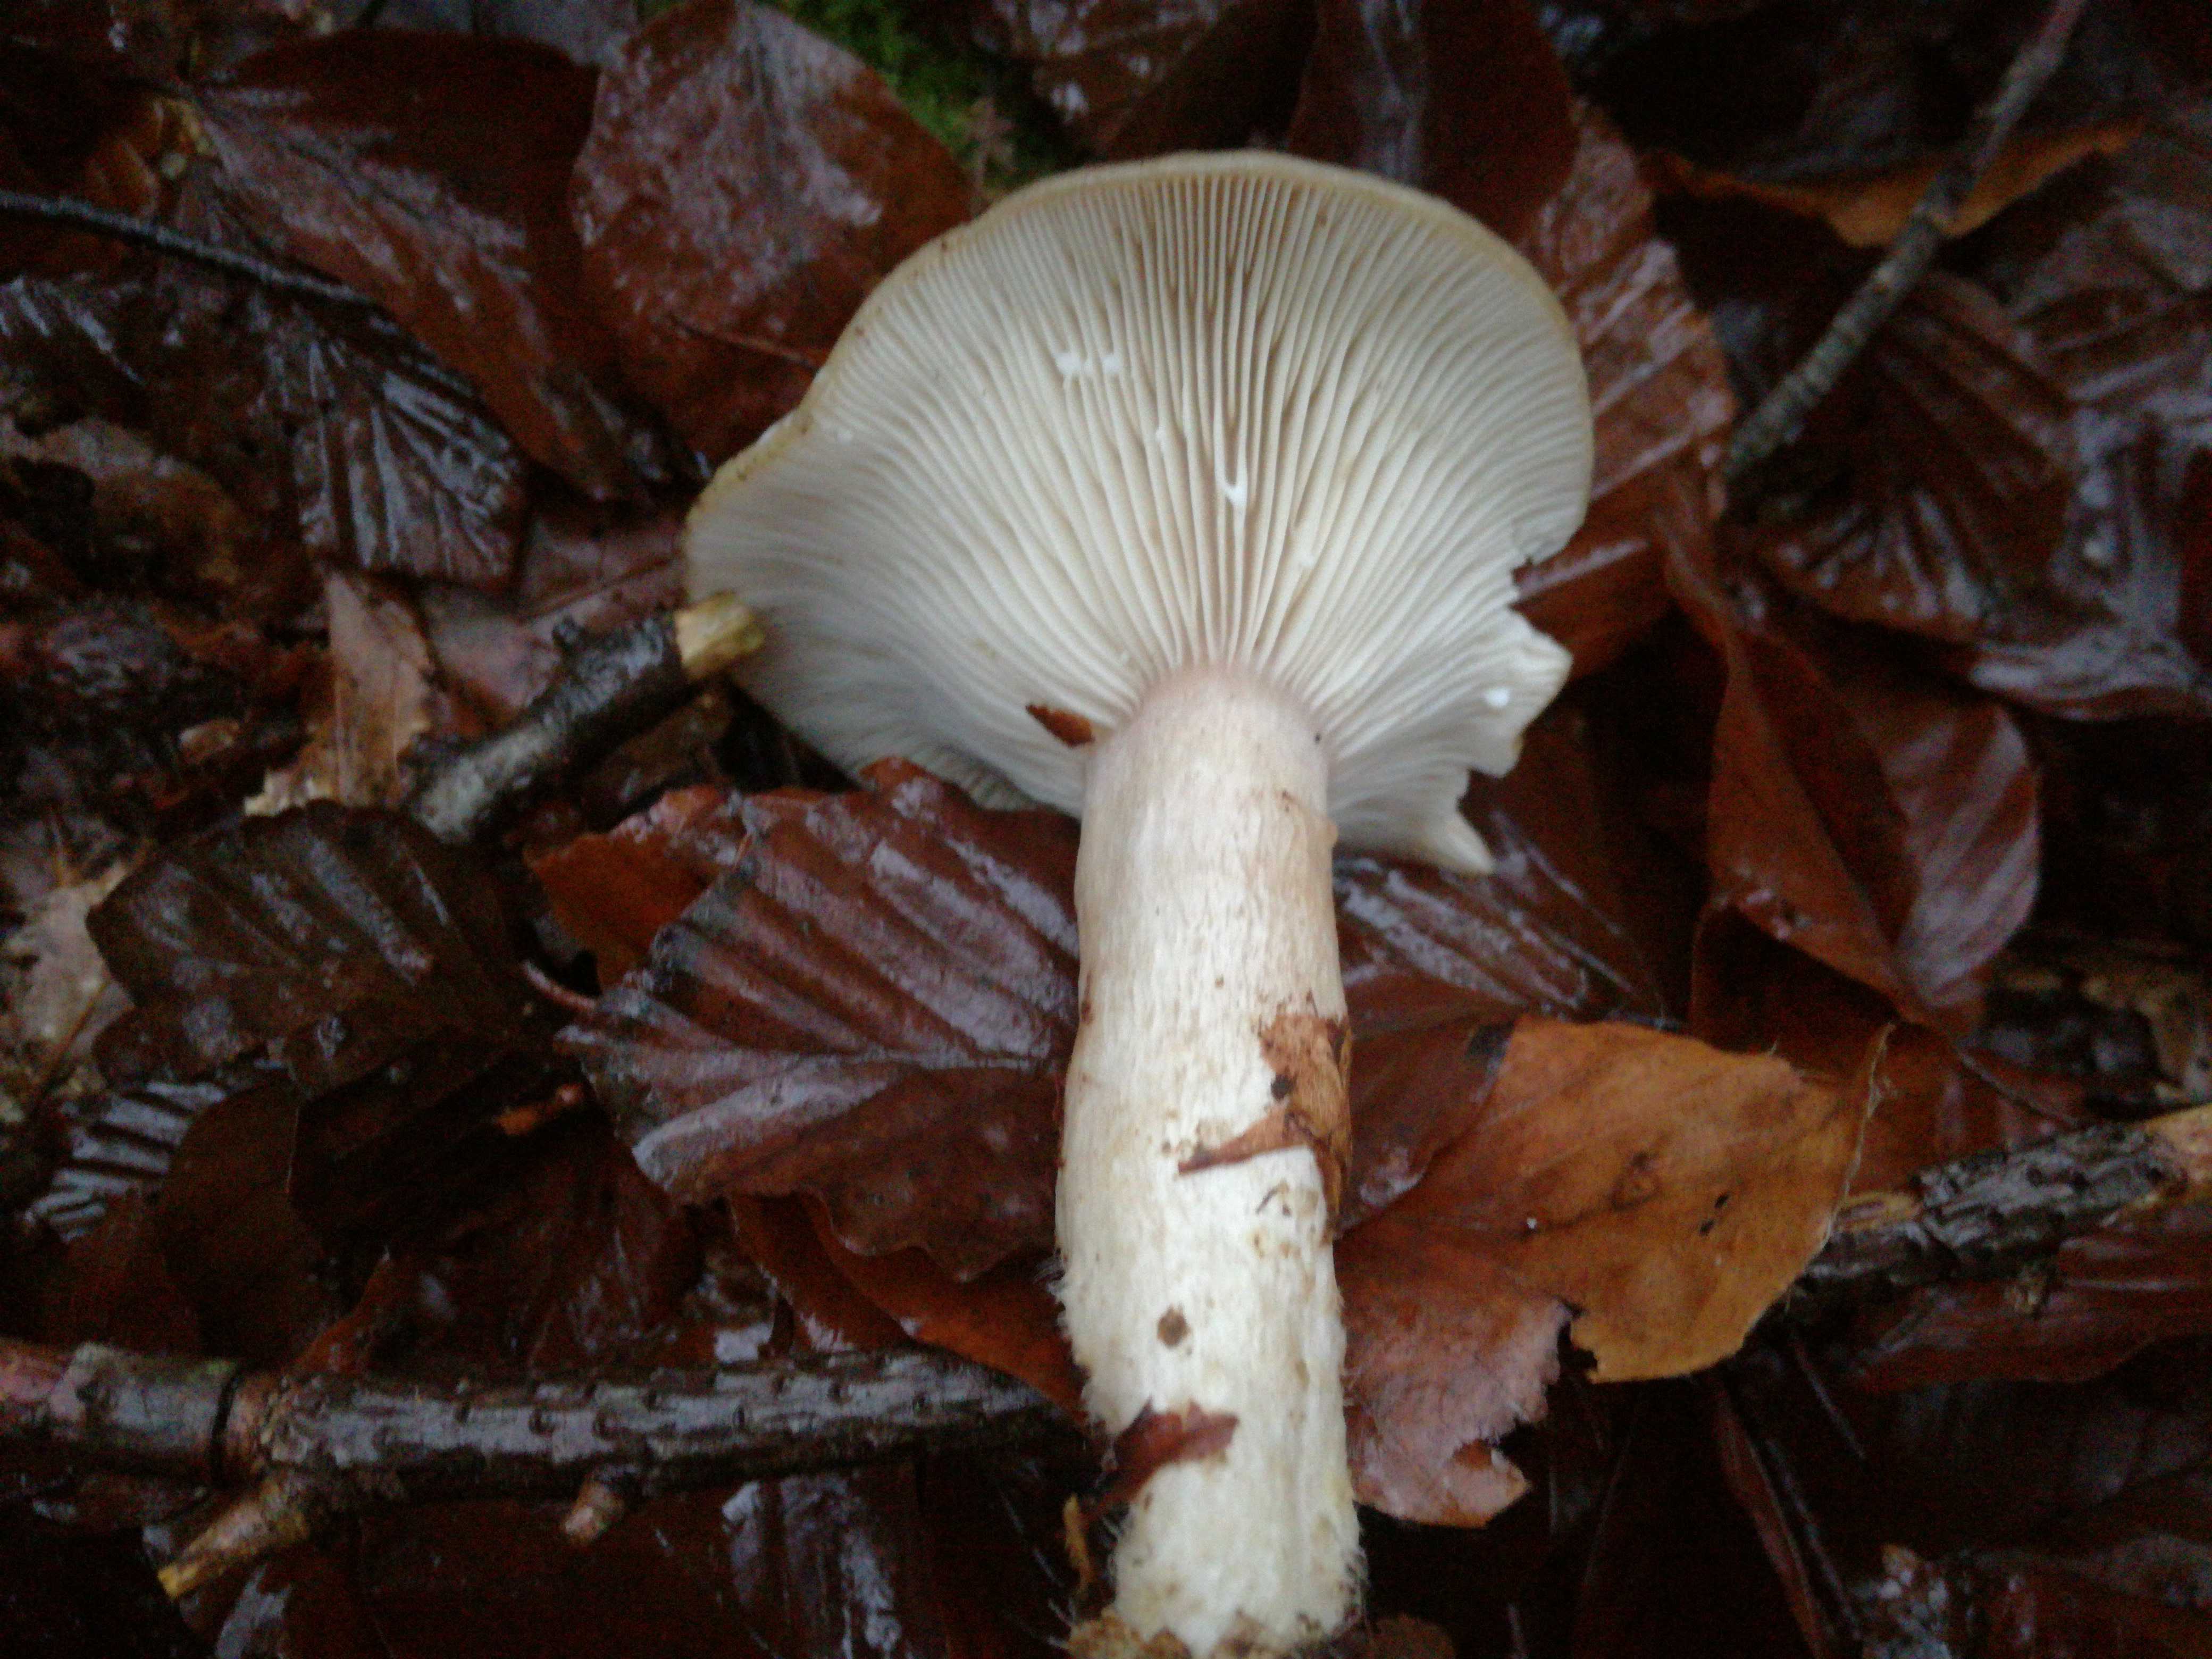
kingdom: Fungi
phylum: Basidiomycota
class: Agaricomycetes
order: Russulales
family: Russulaceae
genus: Lactarius
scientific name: Lactarius blennius
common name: dråbeplettet mælkehat
